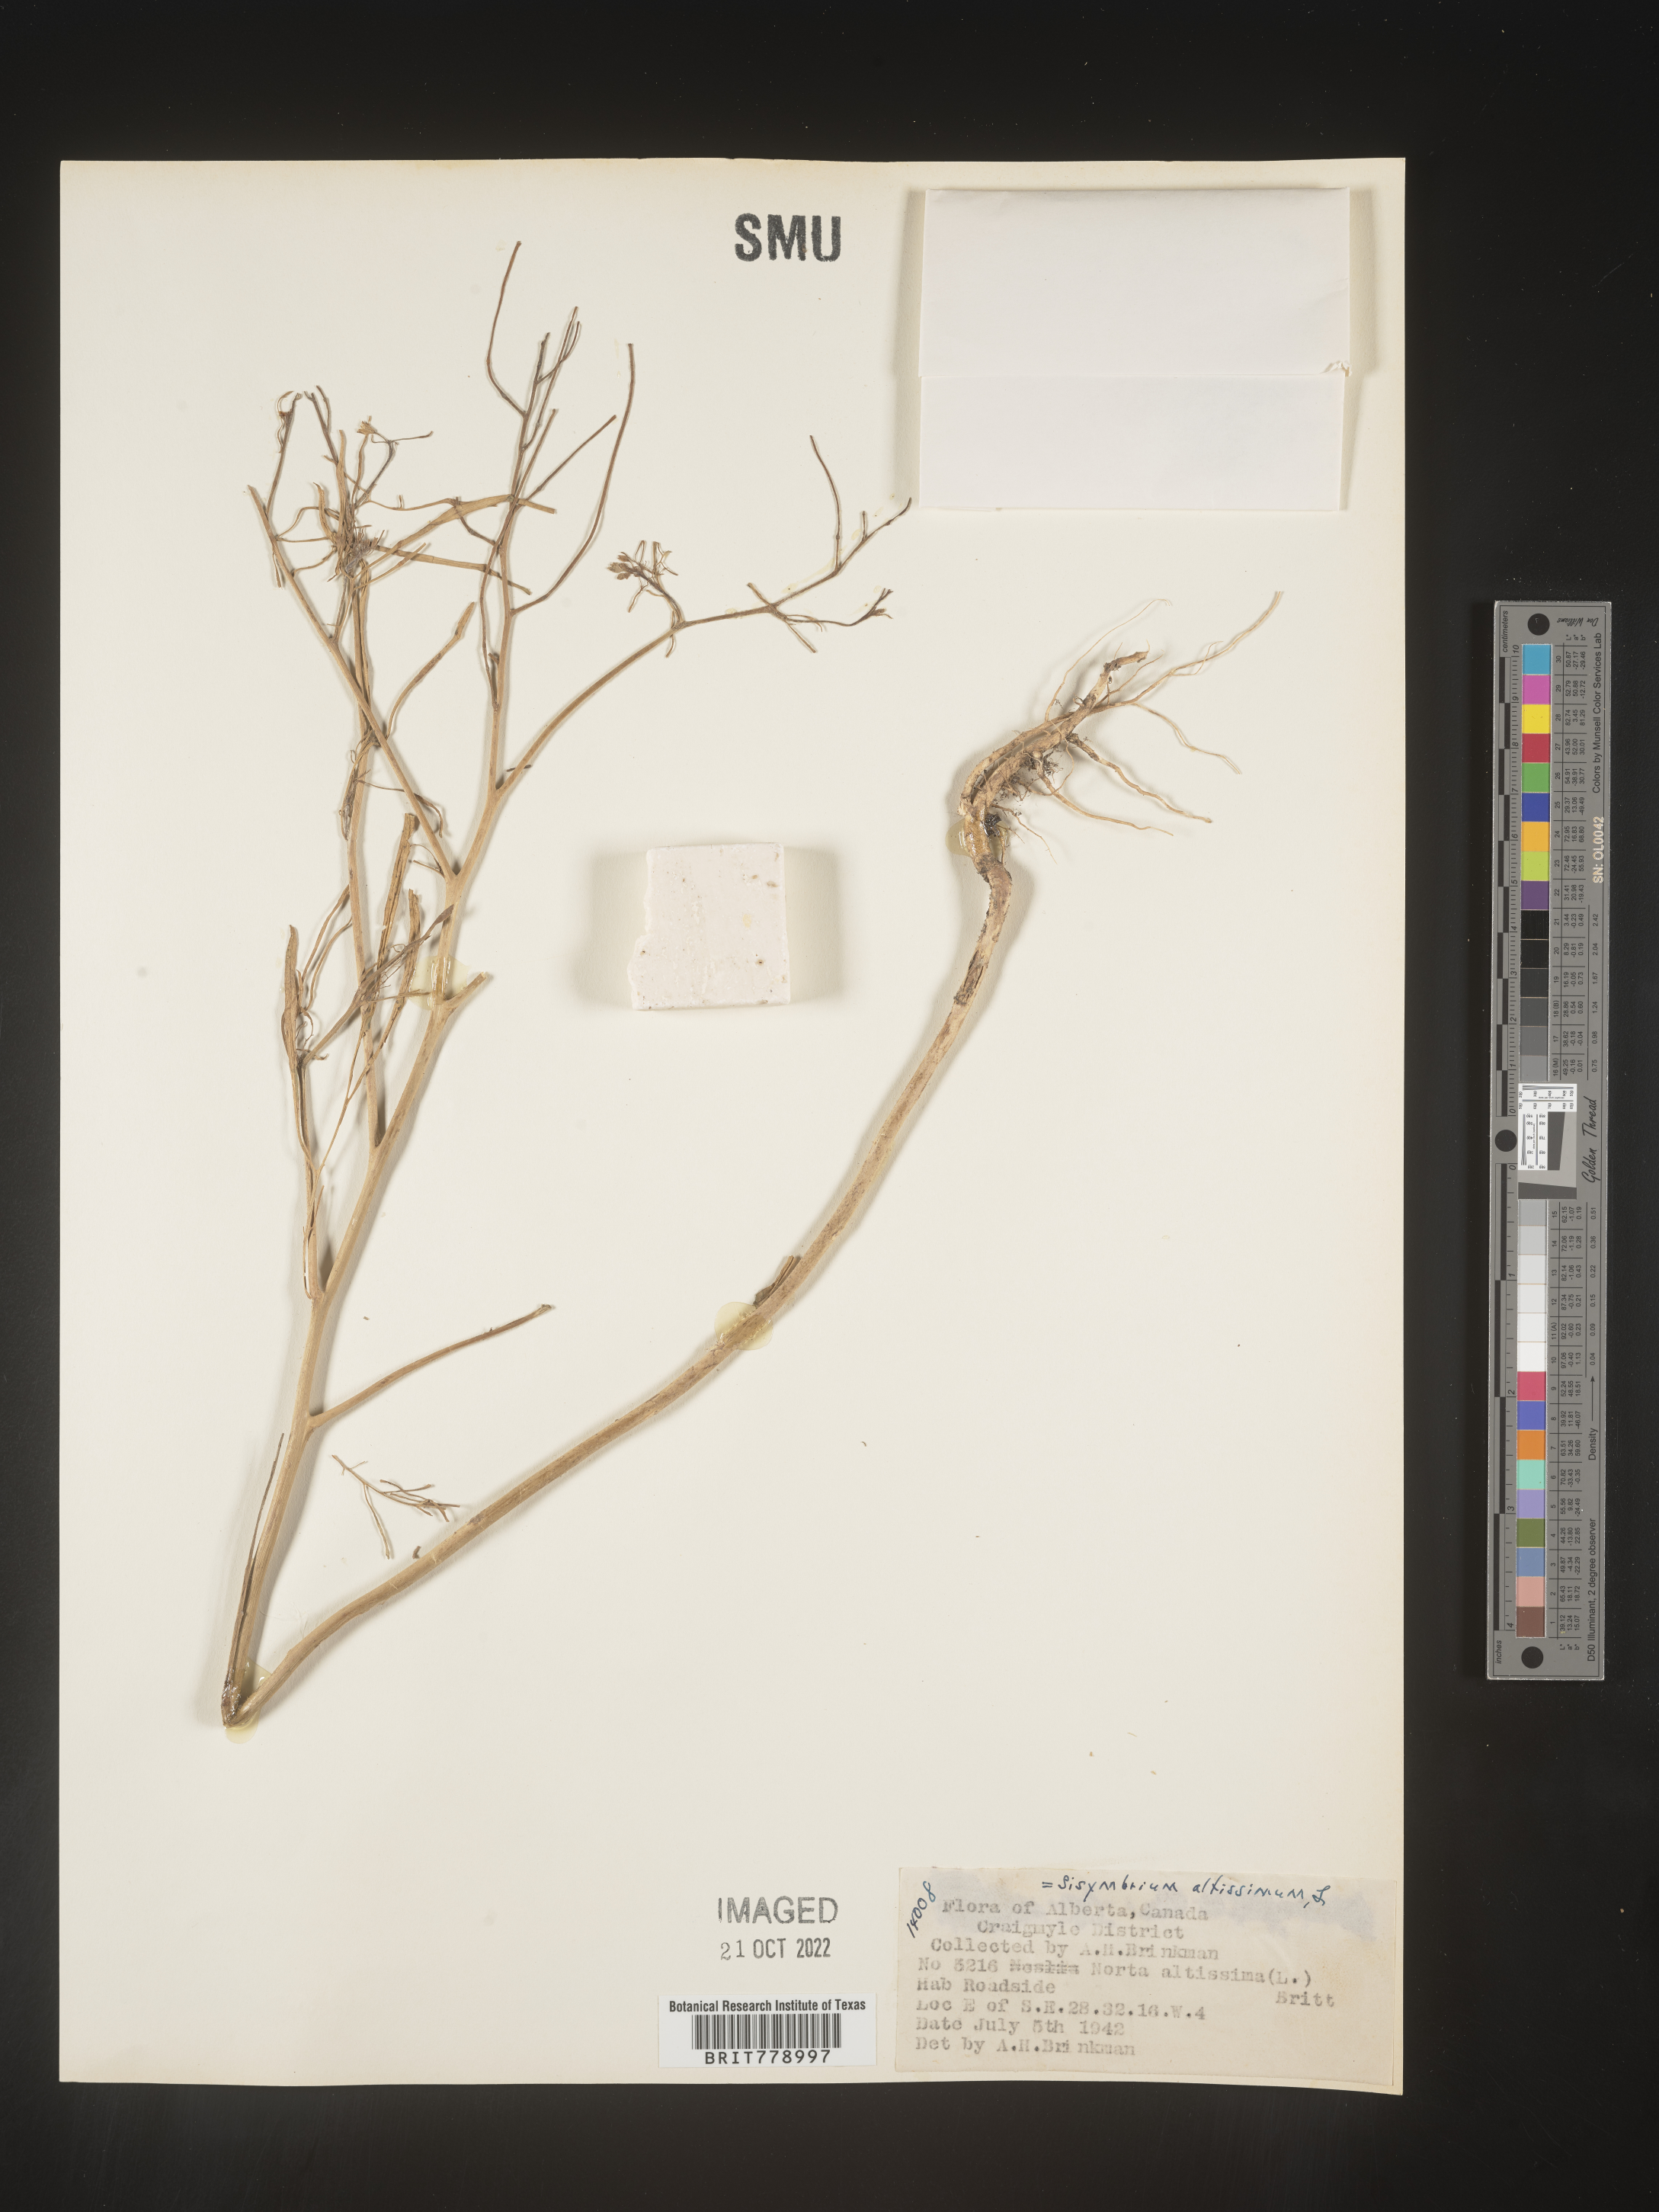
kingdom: Plantae
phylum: Tracheophyta
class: Magnoliopsida
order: Brassicales
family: Brassicaceae
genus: Sisymbrium
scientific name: Sisymbrium altissimum
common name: Tall rocket
